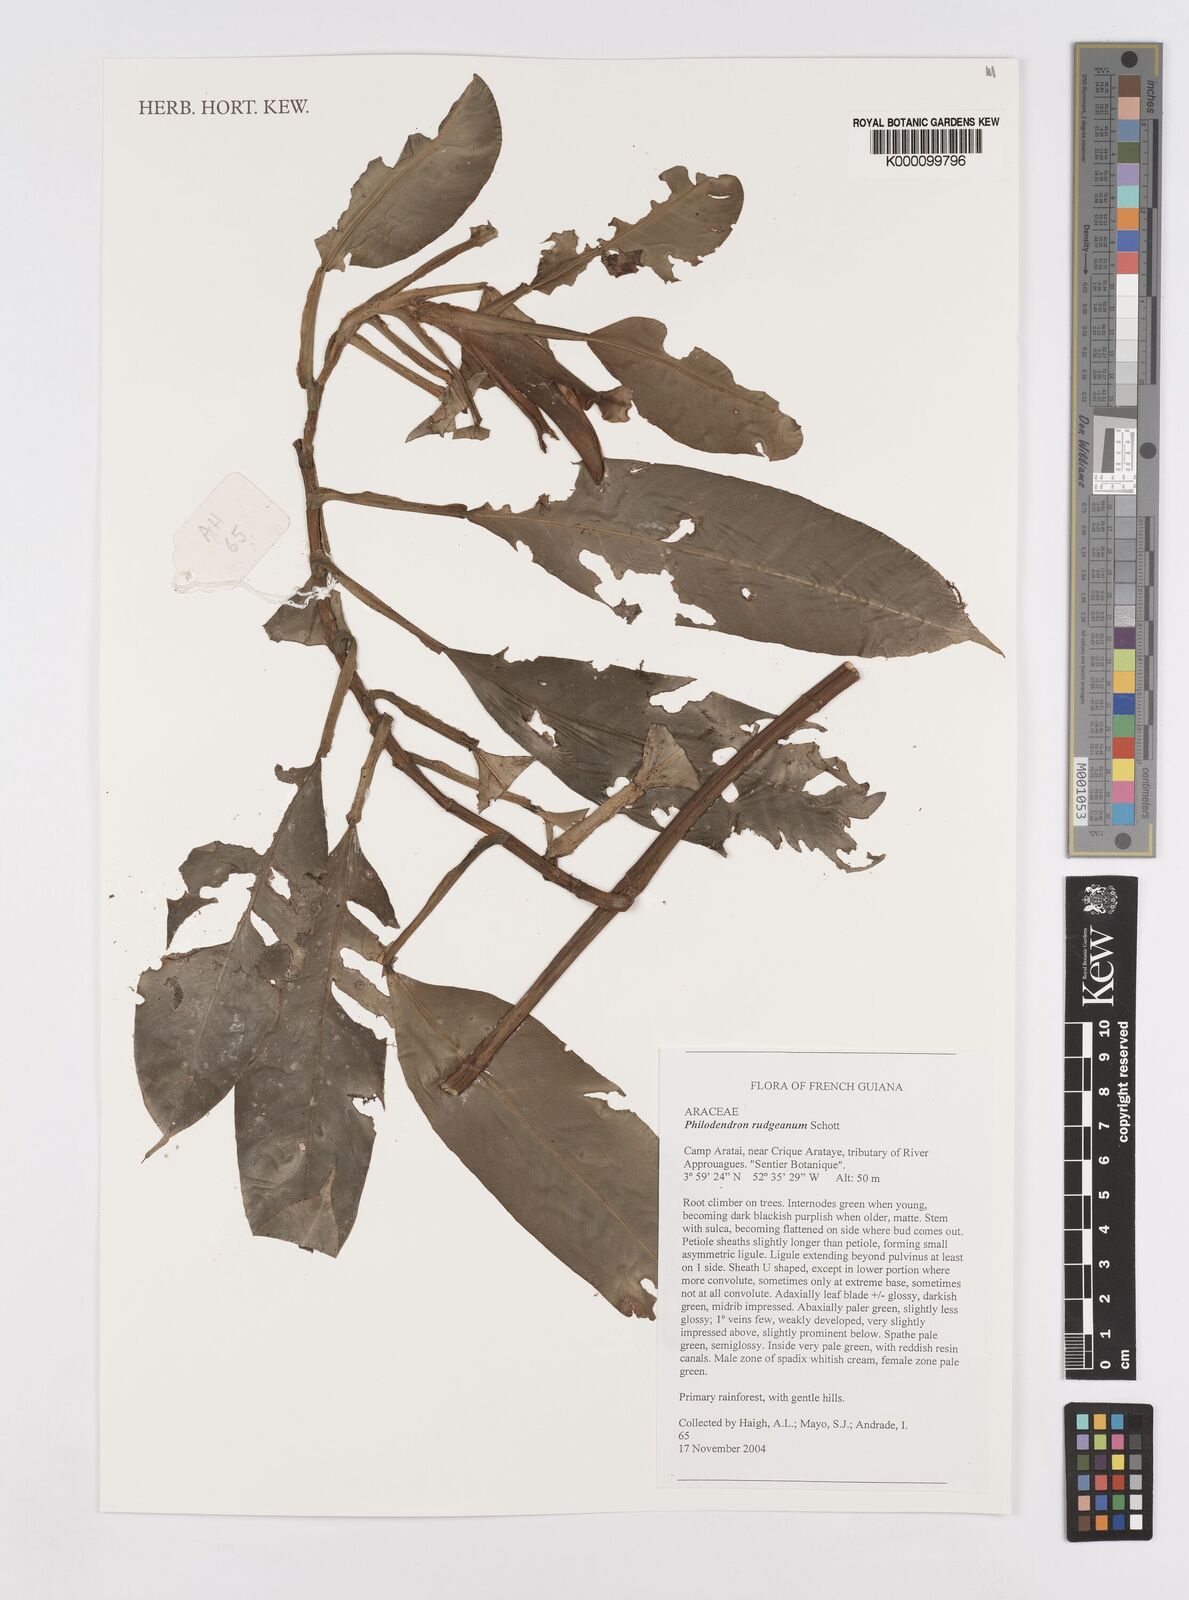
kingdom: Plantae
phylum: Tracheophyta
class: Liliopsida
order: Alismatales
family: Araceae
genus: Philodendron
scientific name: Philodendron rudgeanum
